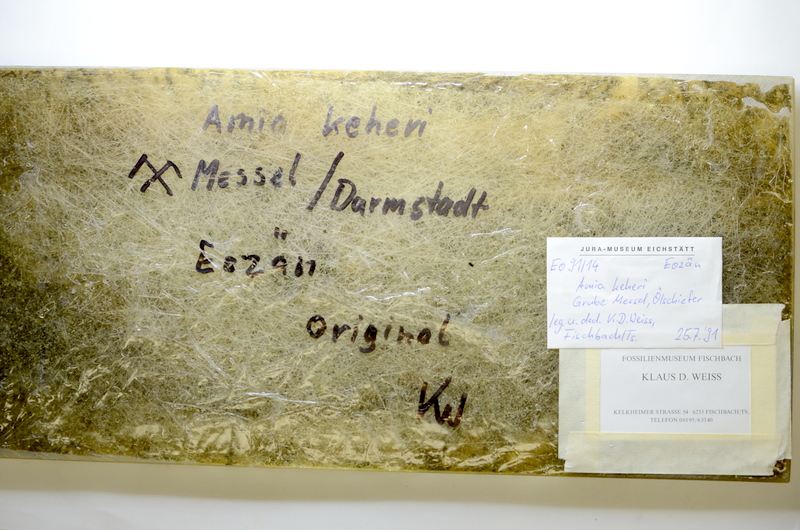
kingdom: Animalia
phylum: Chordata
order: Amiiformes
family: Amiidae
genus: Cyclurus
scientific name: Cyclurus Amia kehreri
